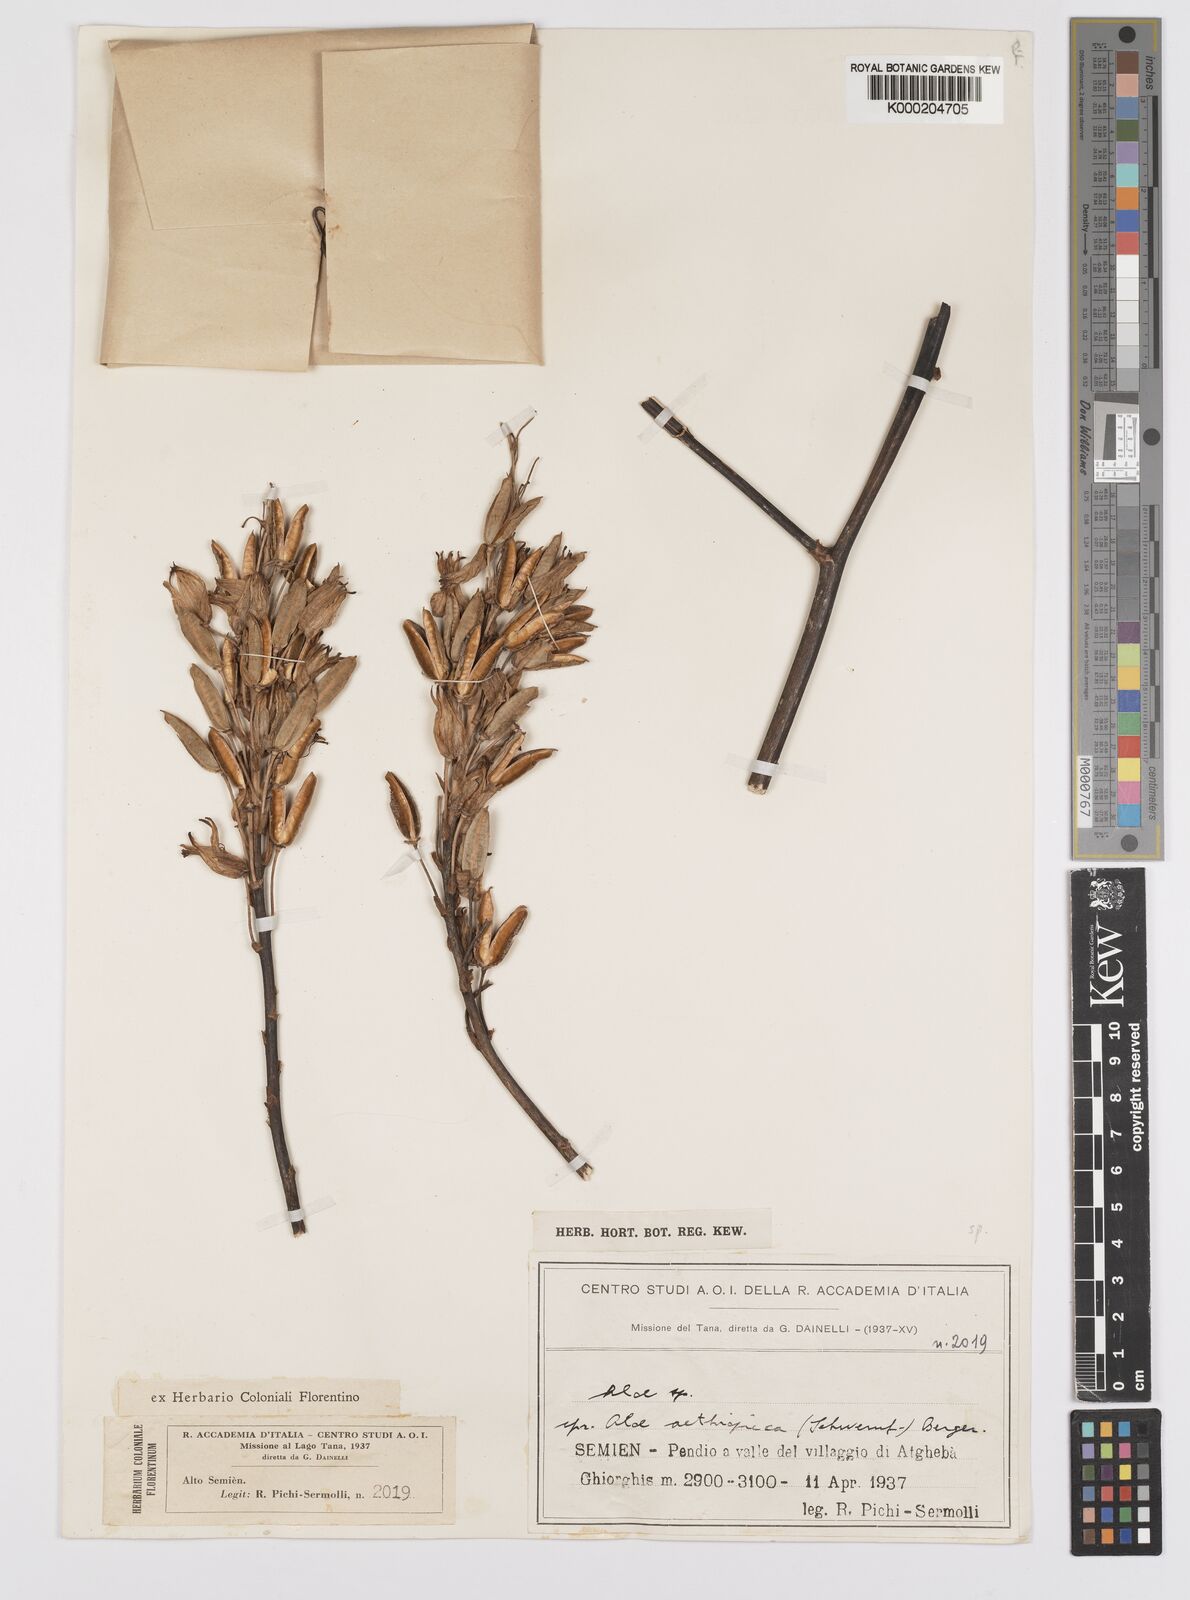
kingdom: Plantae
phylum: Tracheophyta
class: Liliopsida
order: Asparagales
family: Asphodelaceae
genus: Aloe
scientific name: Aloe
